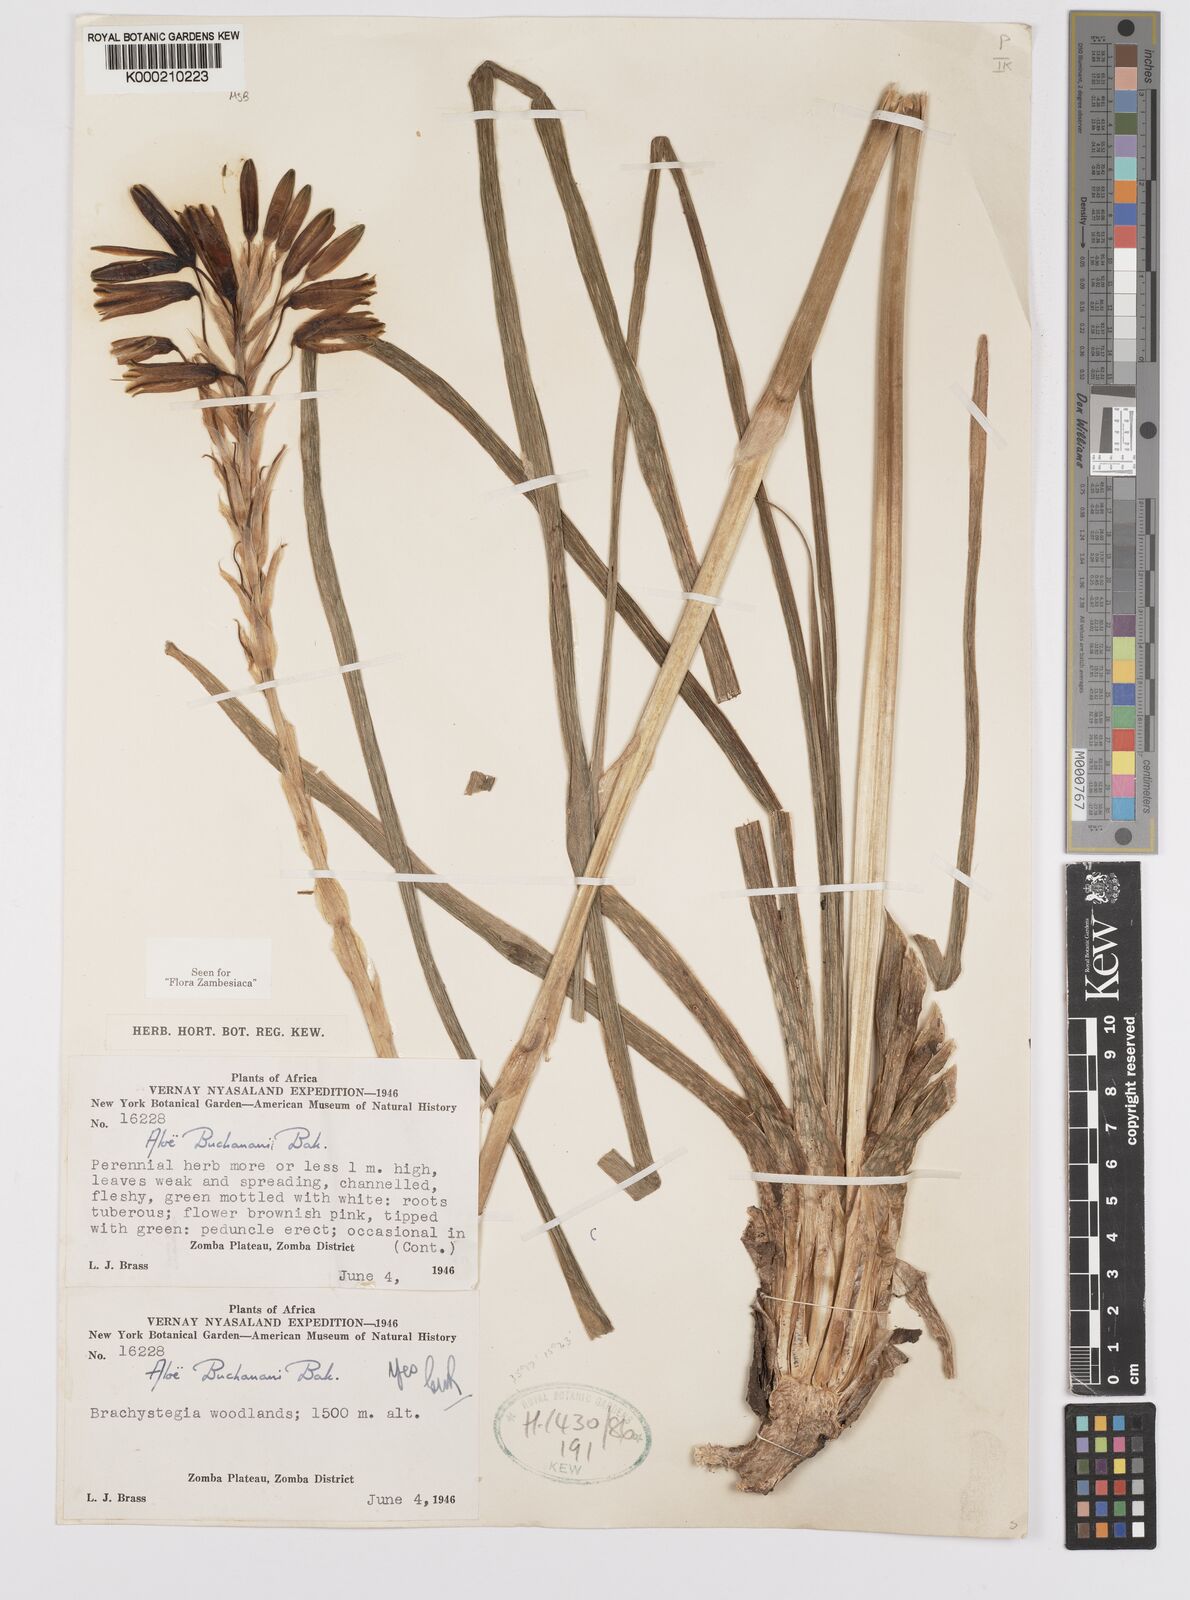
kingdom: Plantae
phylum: Tracheophyta
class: Liliopsida
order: Asparagales
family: Asphodelaceae
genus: Aloe
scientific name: Aloe buchananii
